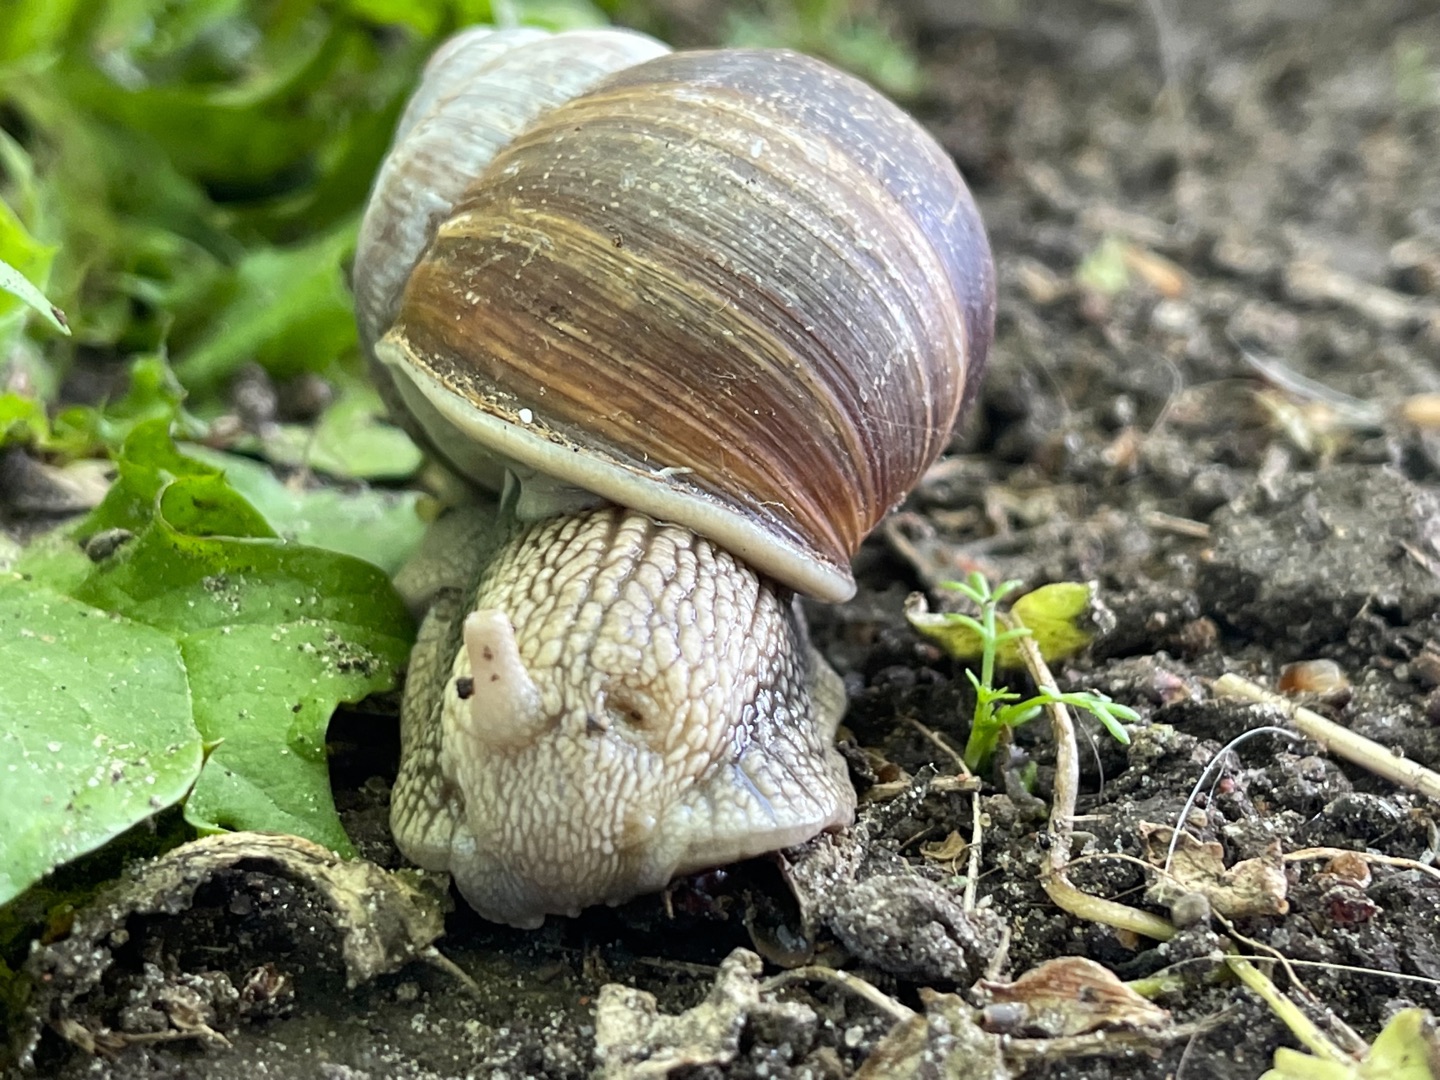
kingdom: Animalia
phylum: Mollusca
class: Gastropoda
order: Stylommatophora
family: Helicidae
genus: Helix
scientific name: Helix pomatia
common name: Vinbjergsnegl
